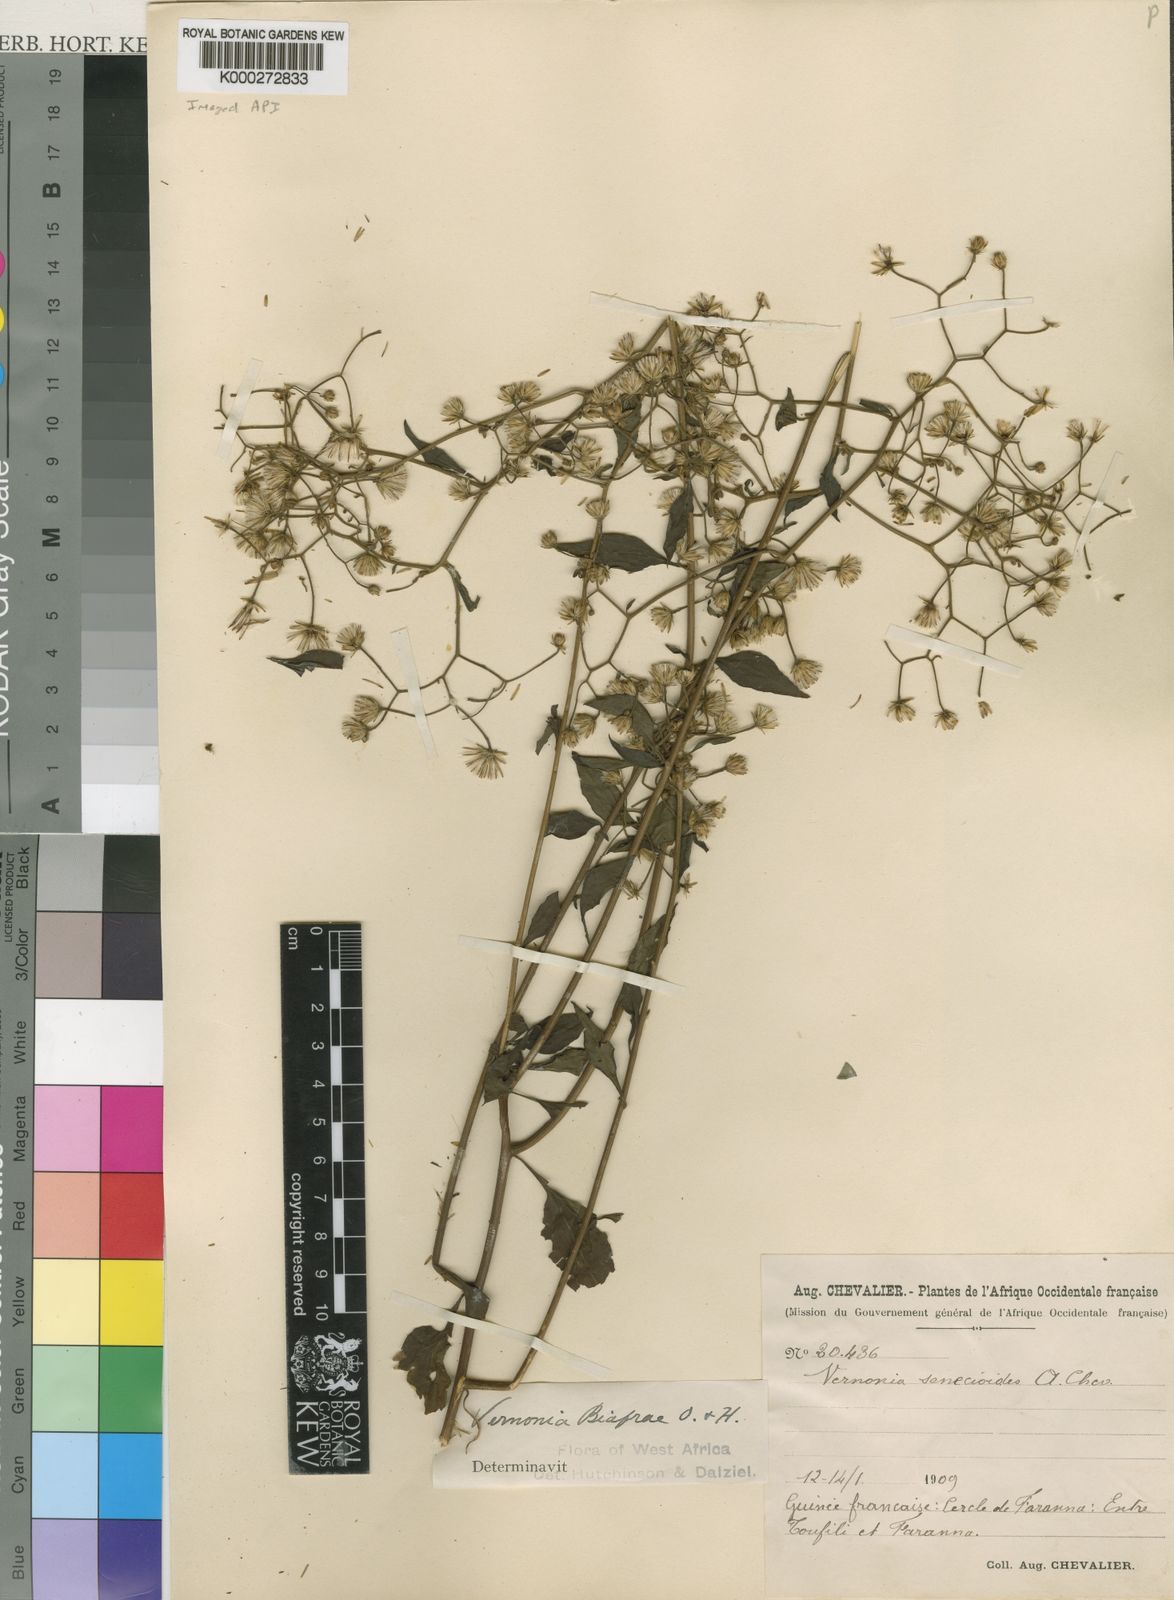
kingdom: Plantae
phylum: Tracheophyta
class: Magnoliopsida
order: Asterales
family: Asteraceae
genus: Distephanus
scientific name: Distephanus biafrae
